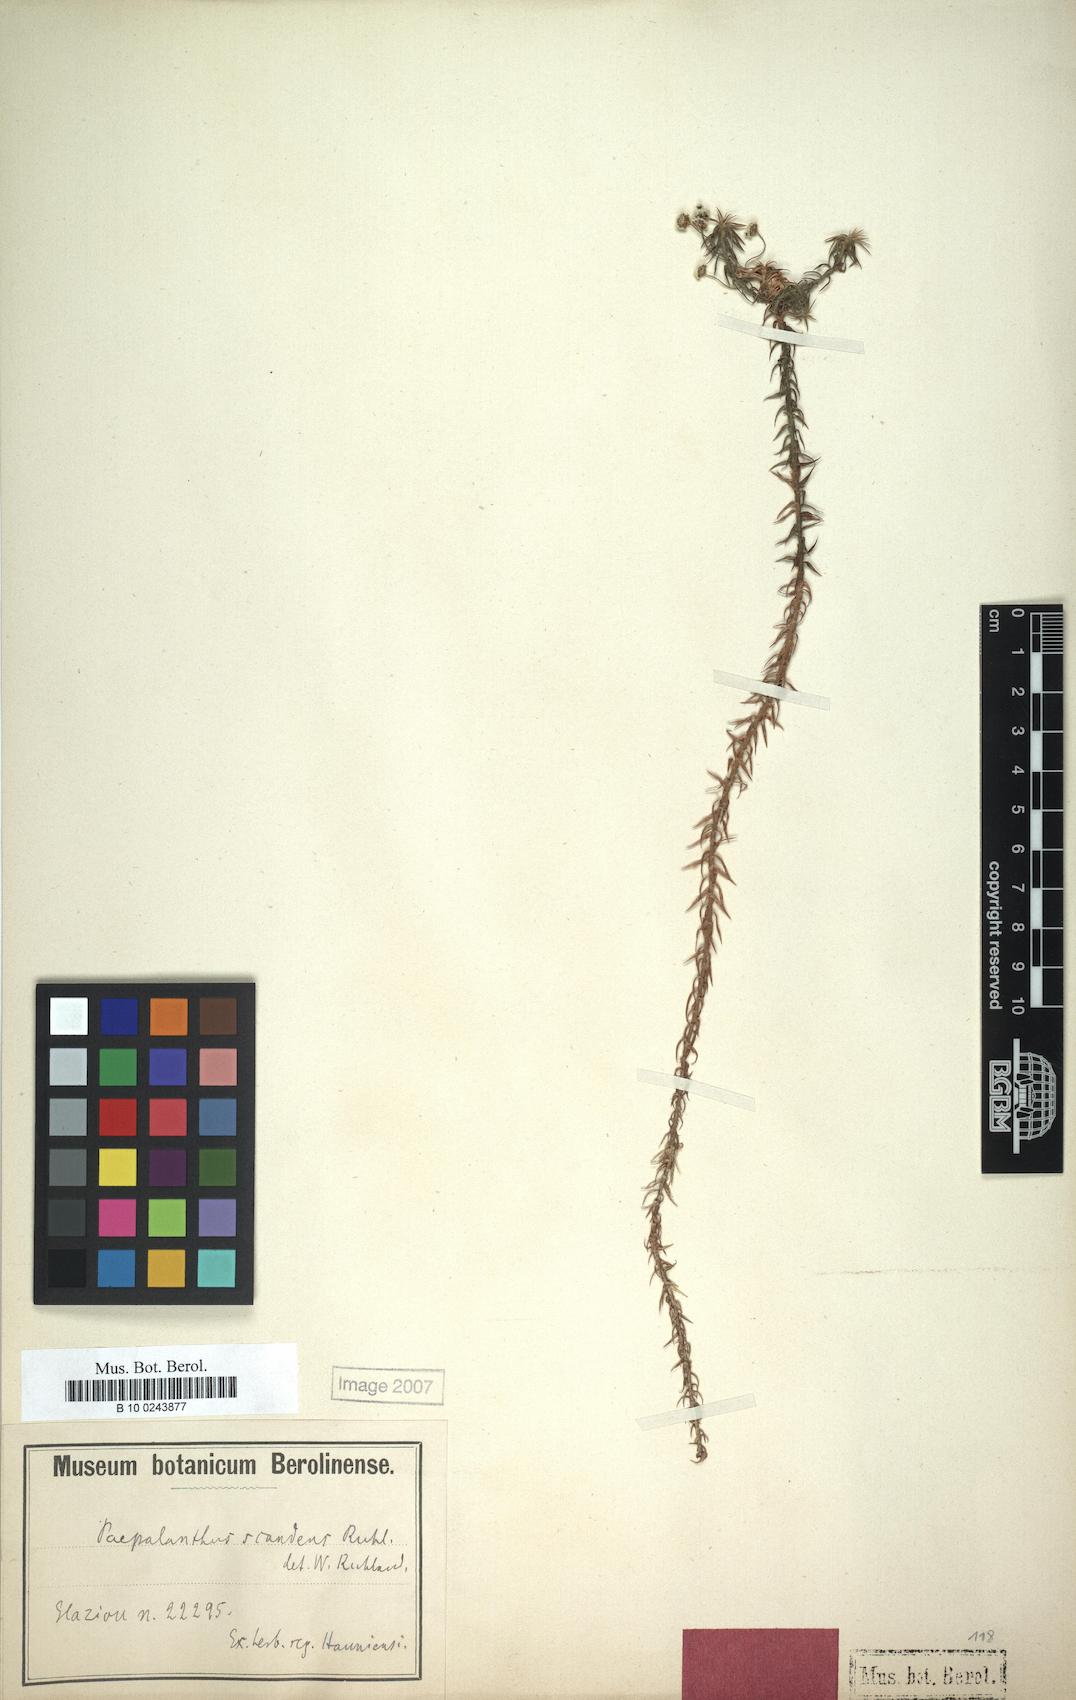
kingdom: Plantae
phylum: Tracheophyta
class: Liliopsida
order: Poales
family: Eriocaulaceae
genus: Paepalanthus
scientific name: Paepalanthus scandens
